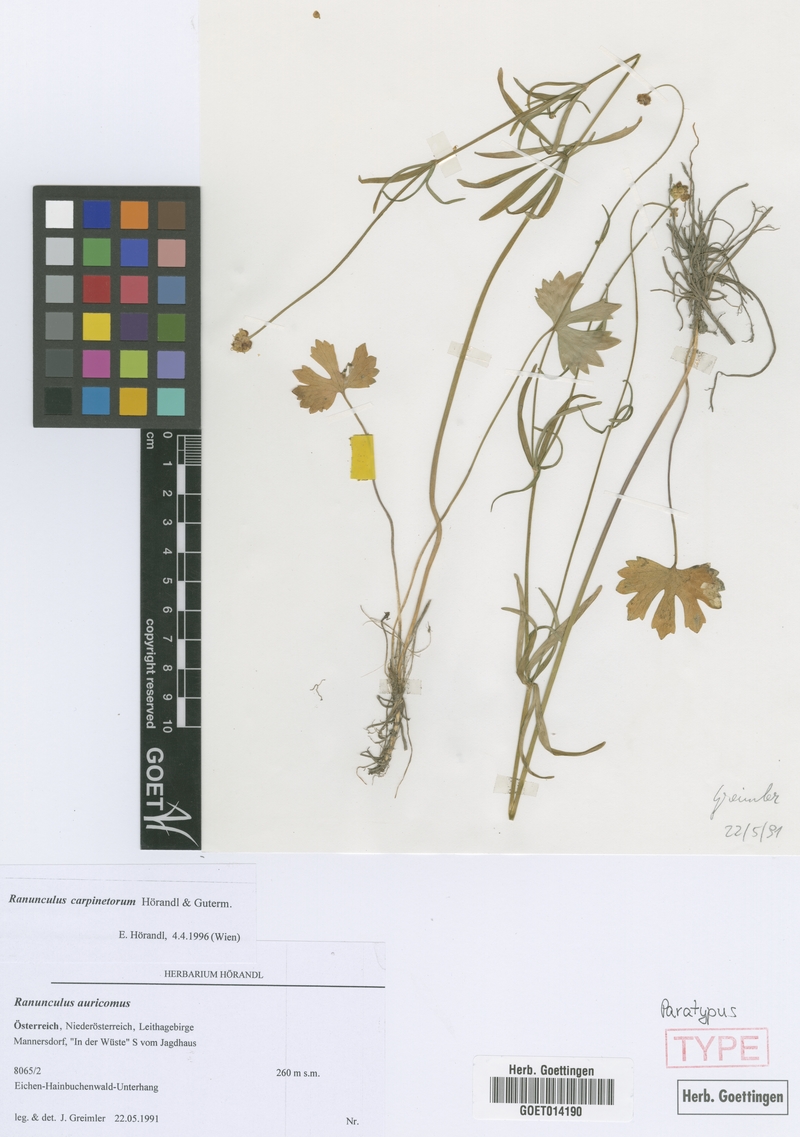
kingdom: Plantae
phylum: Tracheophyta
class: Magnoliopsida
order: Ranunculales
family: Ranunculaceae
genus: Ranunculus
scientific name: Ranunculus carpinetorum
